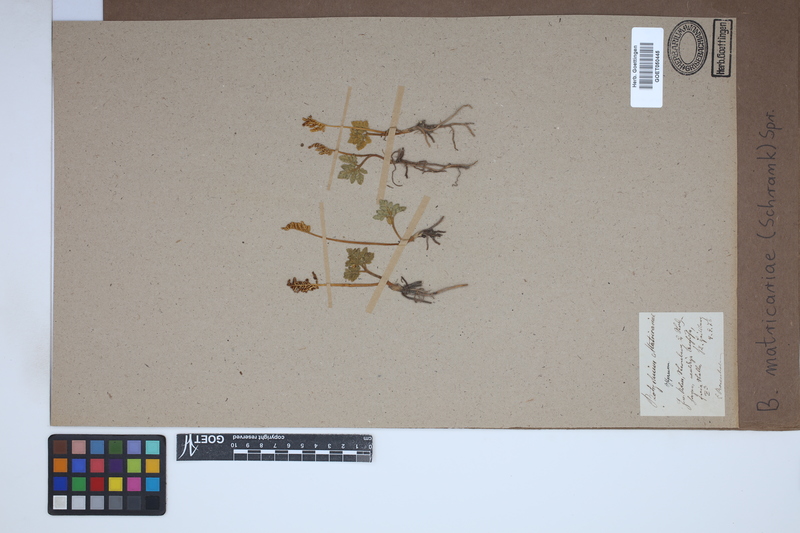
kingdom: Plantae
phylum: Tracheophyta
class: Polypodiopsida
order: Ophioglossales
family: Ophioglossaceae
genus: Sceptridium
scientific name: Sceptridium multifidum
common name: Leathery grape fern
